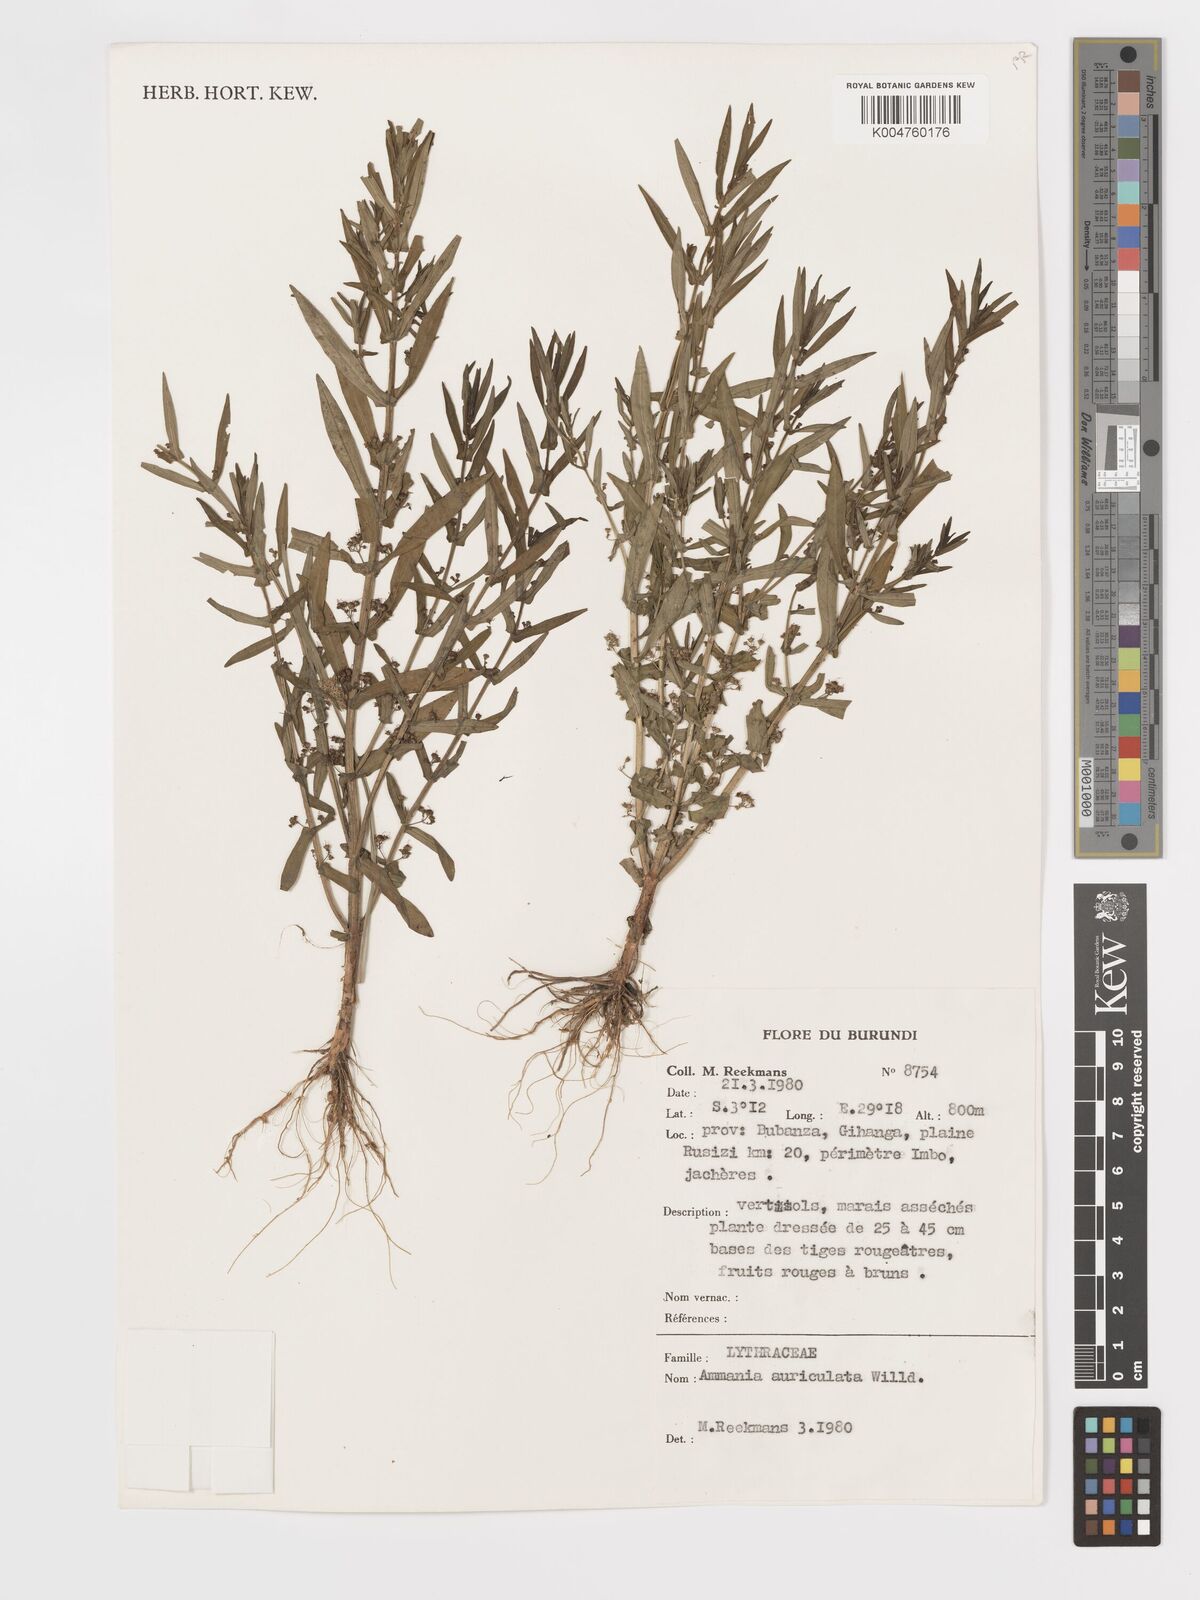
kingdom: Plantae
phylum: Tracheophyta
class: Magnoliopsida
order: Myrtales
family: Lythraceae
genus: Ammannia
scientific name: Ammannia auriculata
